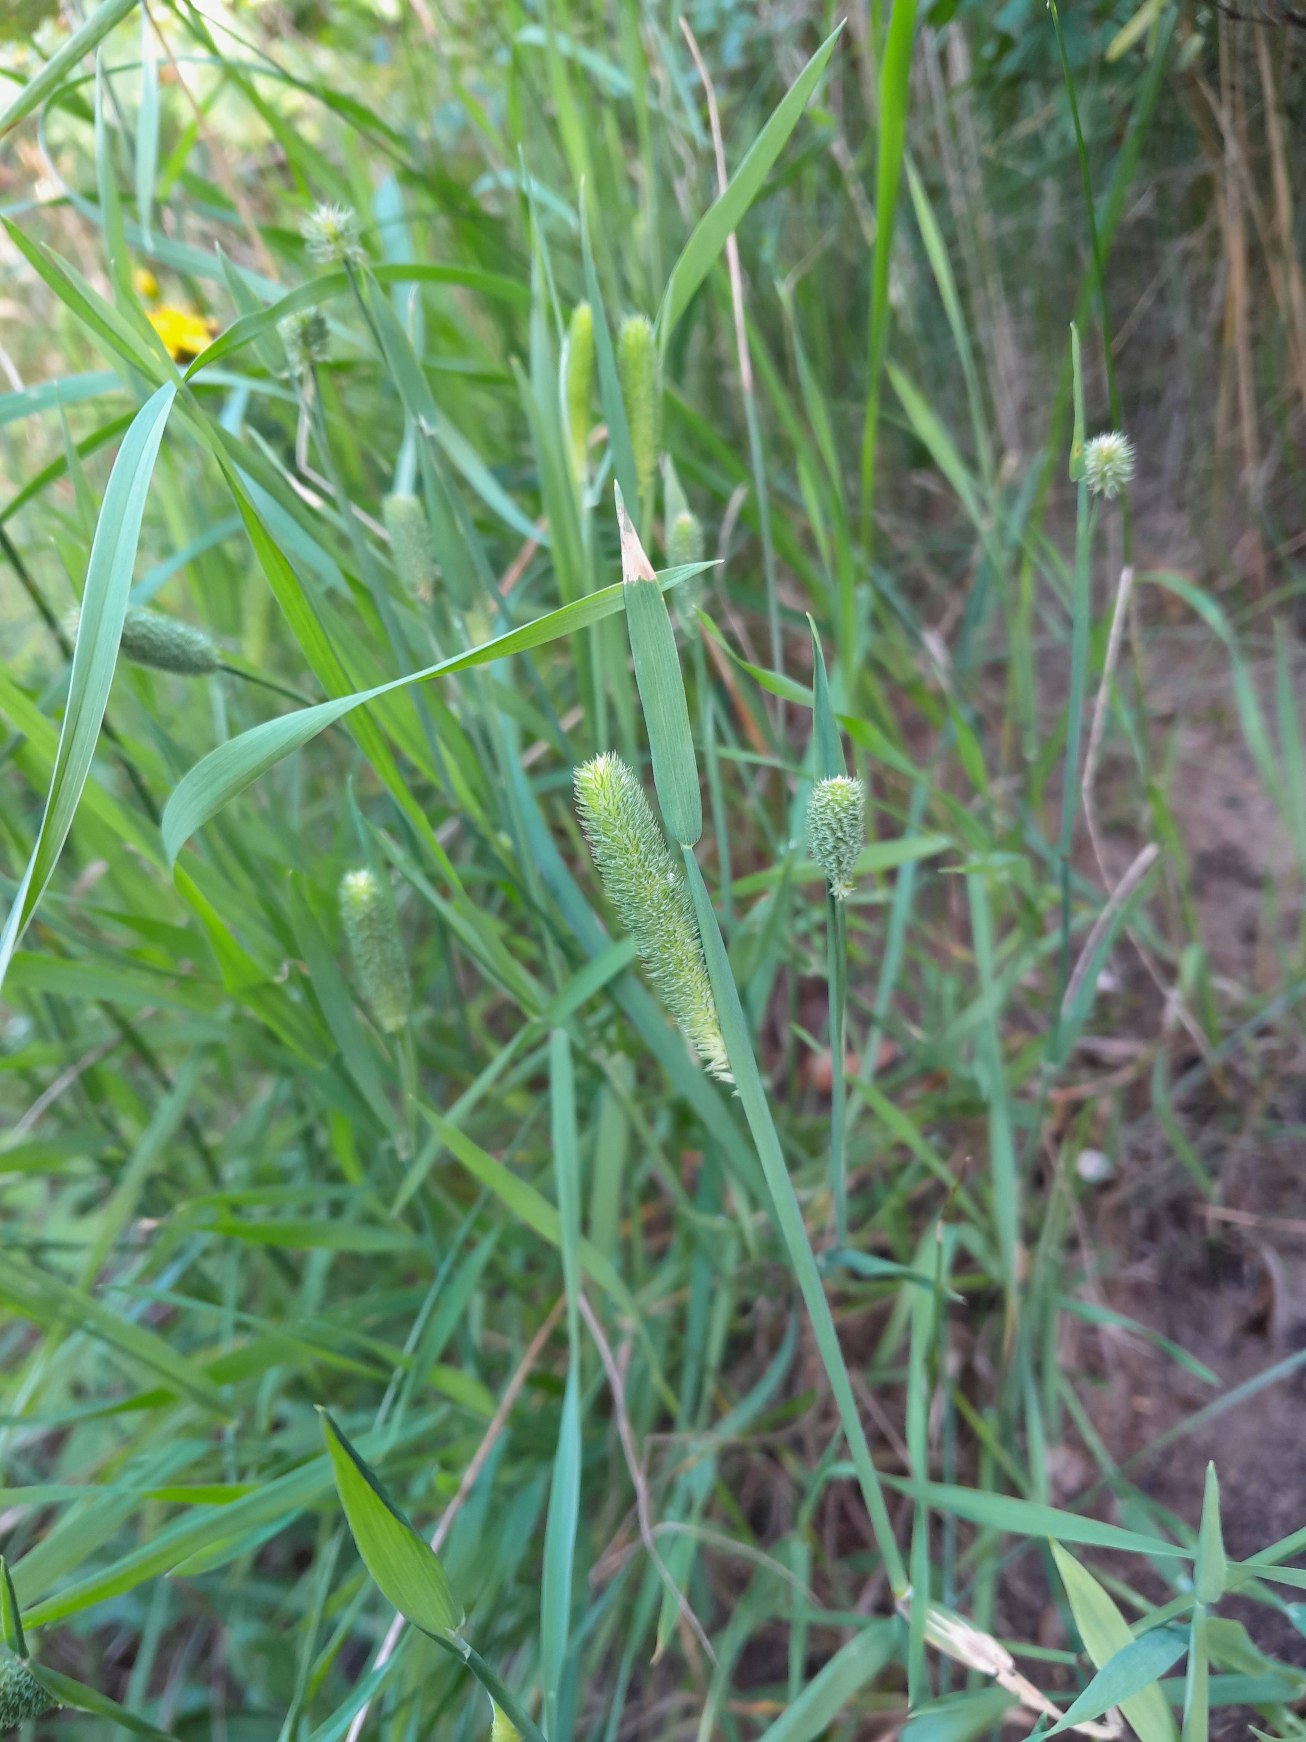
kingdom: Plantae
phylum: Tracheophyta
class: Liliopsida
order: Poales
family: Poaceae
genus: Phleum
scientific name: Phleum pratense
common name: Eng-rottehale
